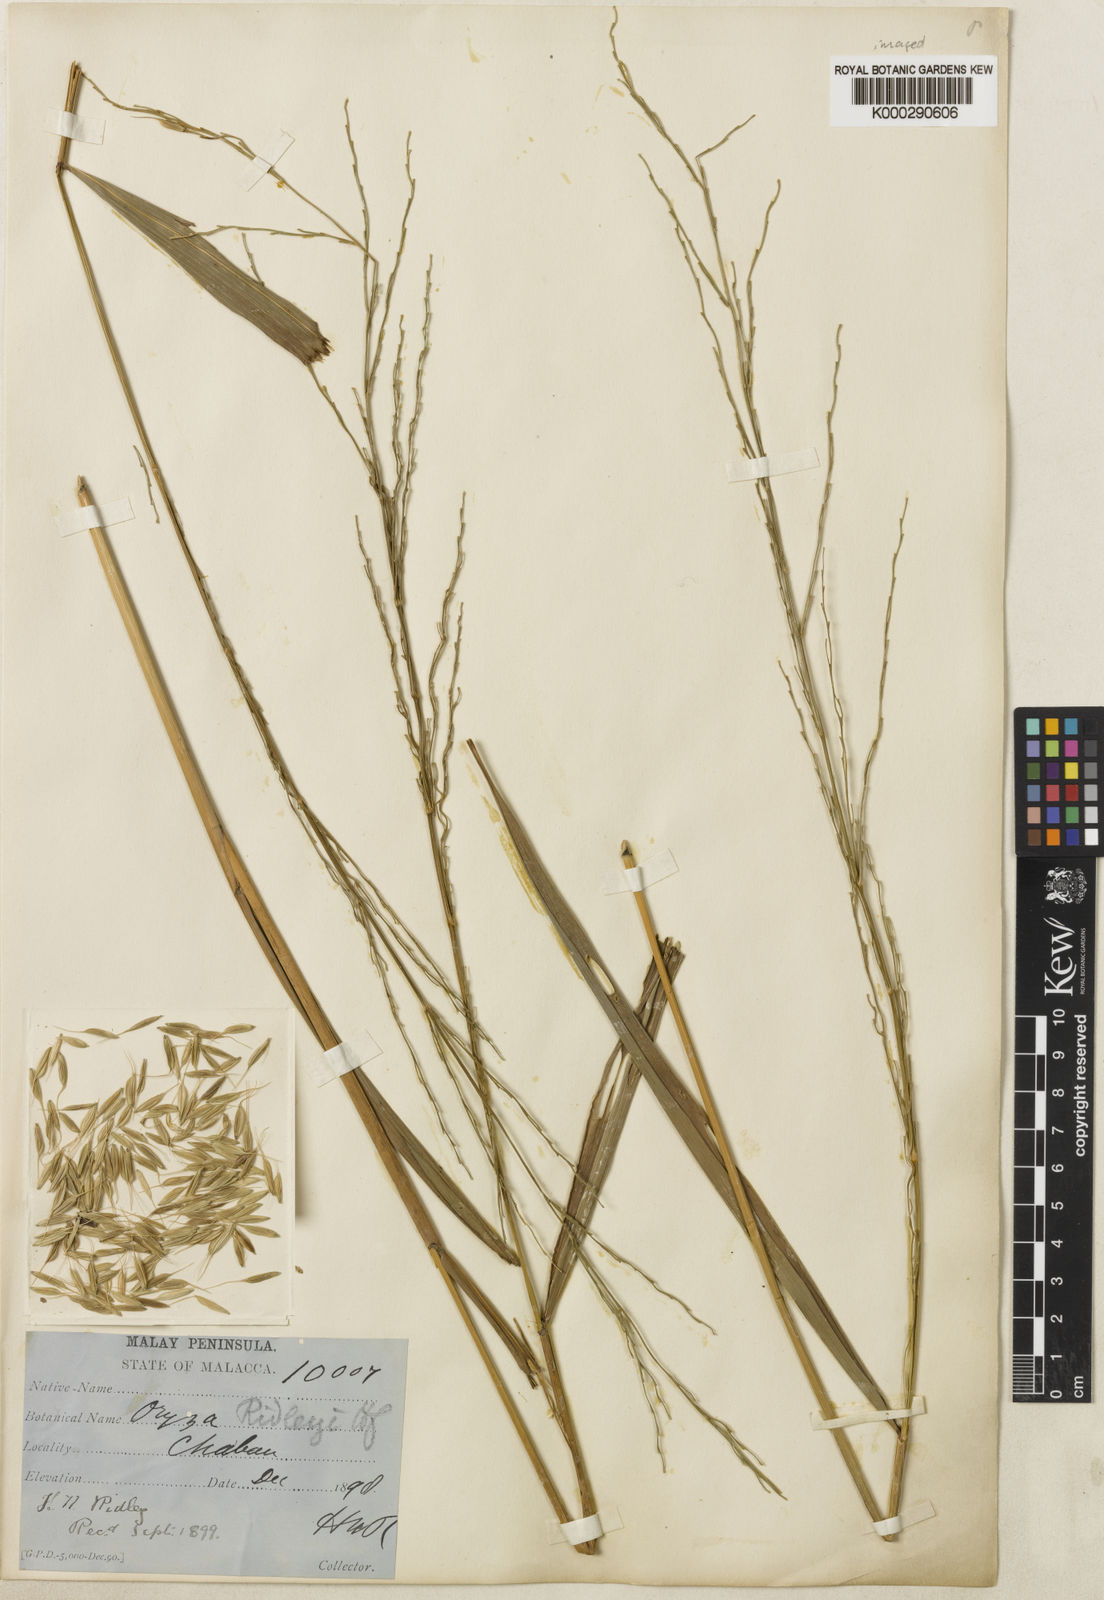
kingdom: Plantae
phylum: Tracheophyta
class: Liliopsida
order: Poales
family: Poaceae
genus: Oryza
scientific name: Oryza ridleyi
